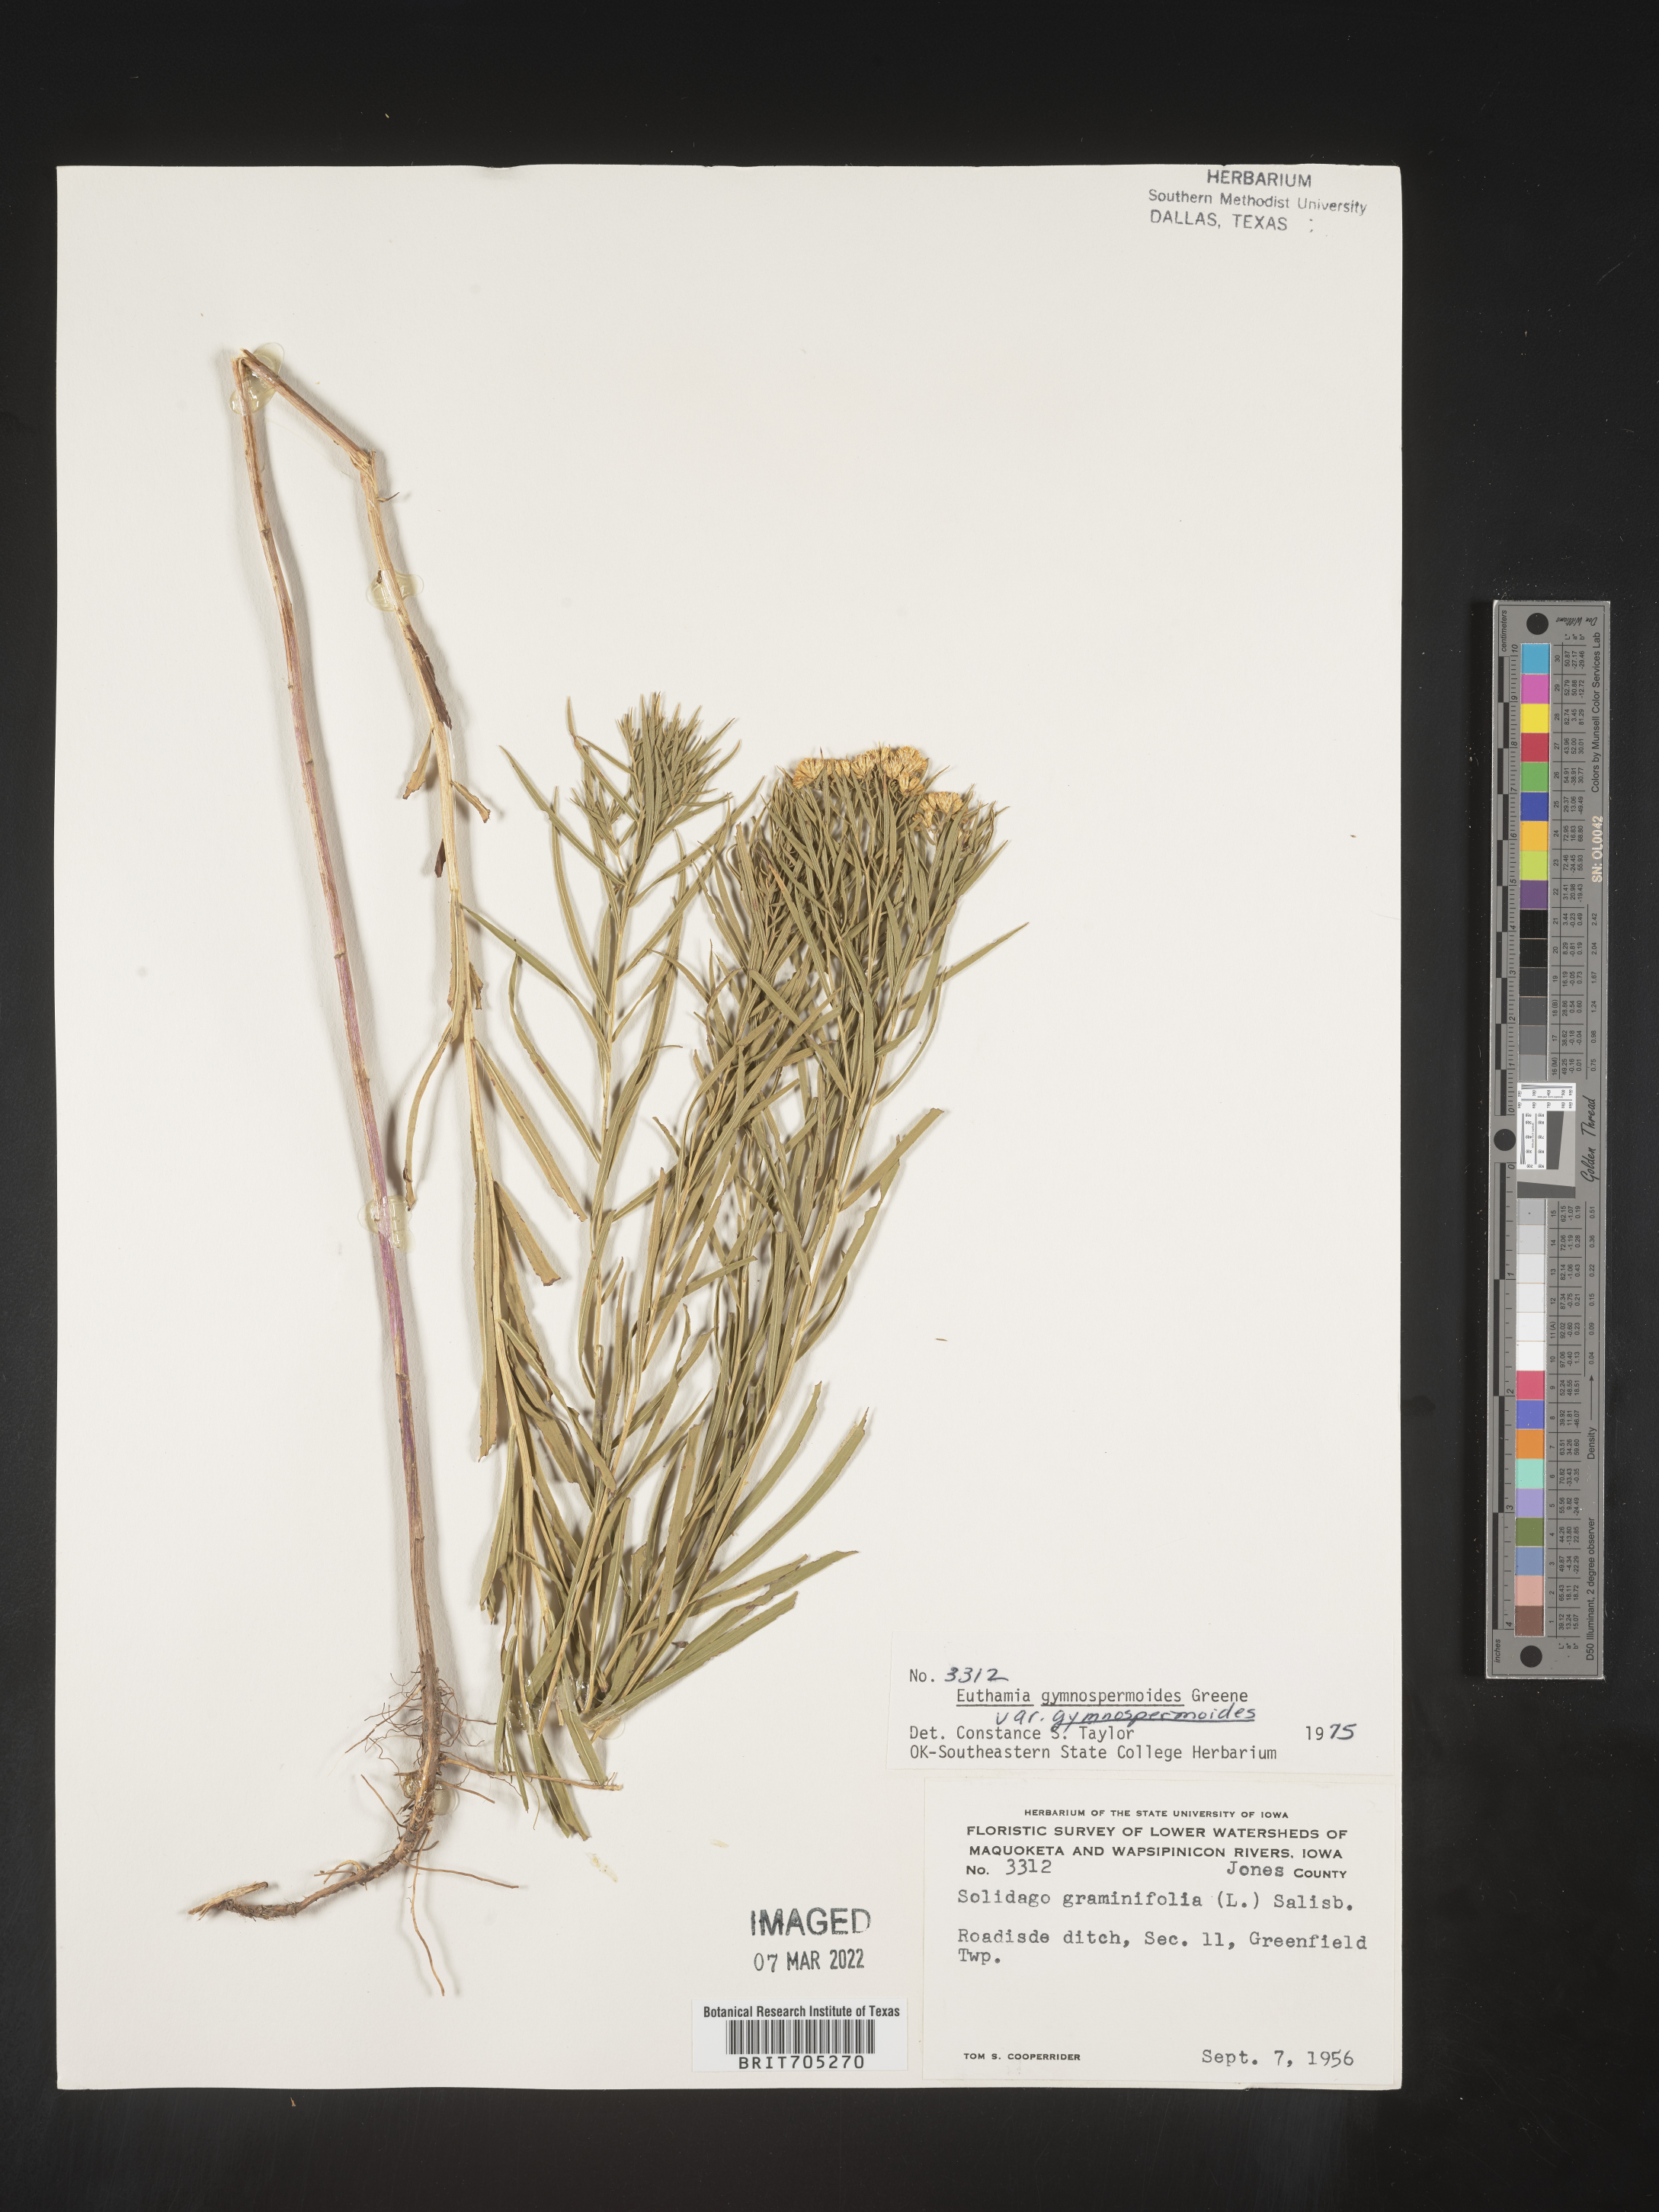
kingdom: Plantae
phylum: Tracheophyta
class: Magnoliopsida
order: Asterales
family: Asteraceae
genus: Euthamia
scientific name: Euthamia gymnospermoides
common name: Great plains goldentop
